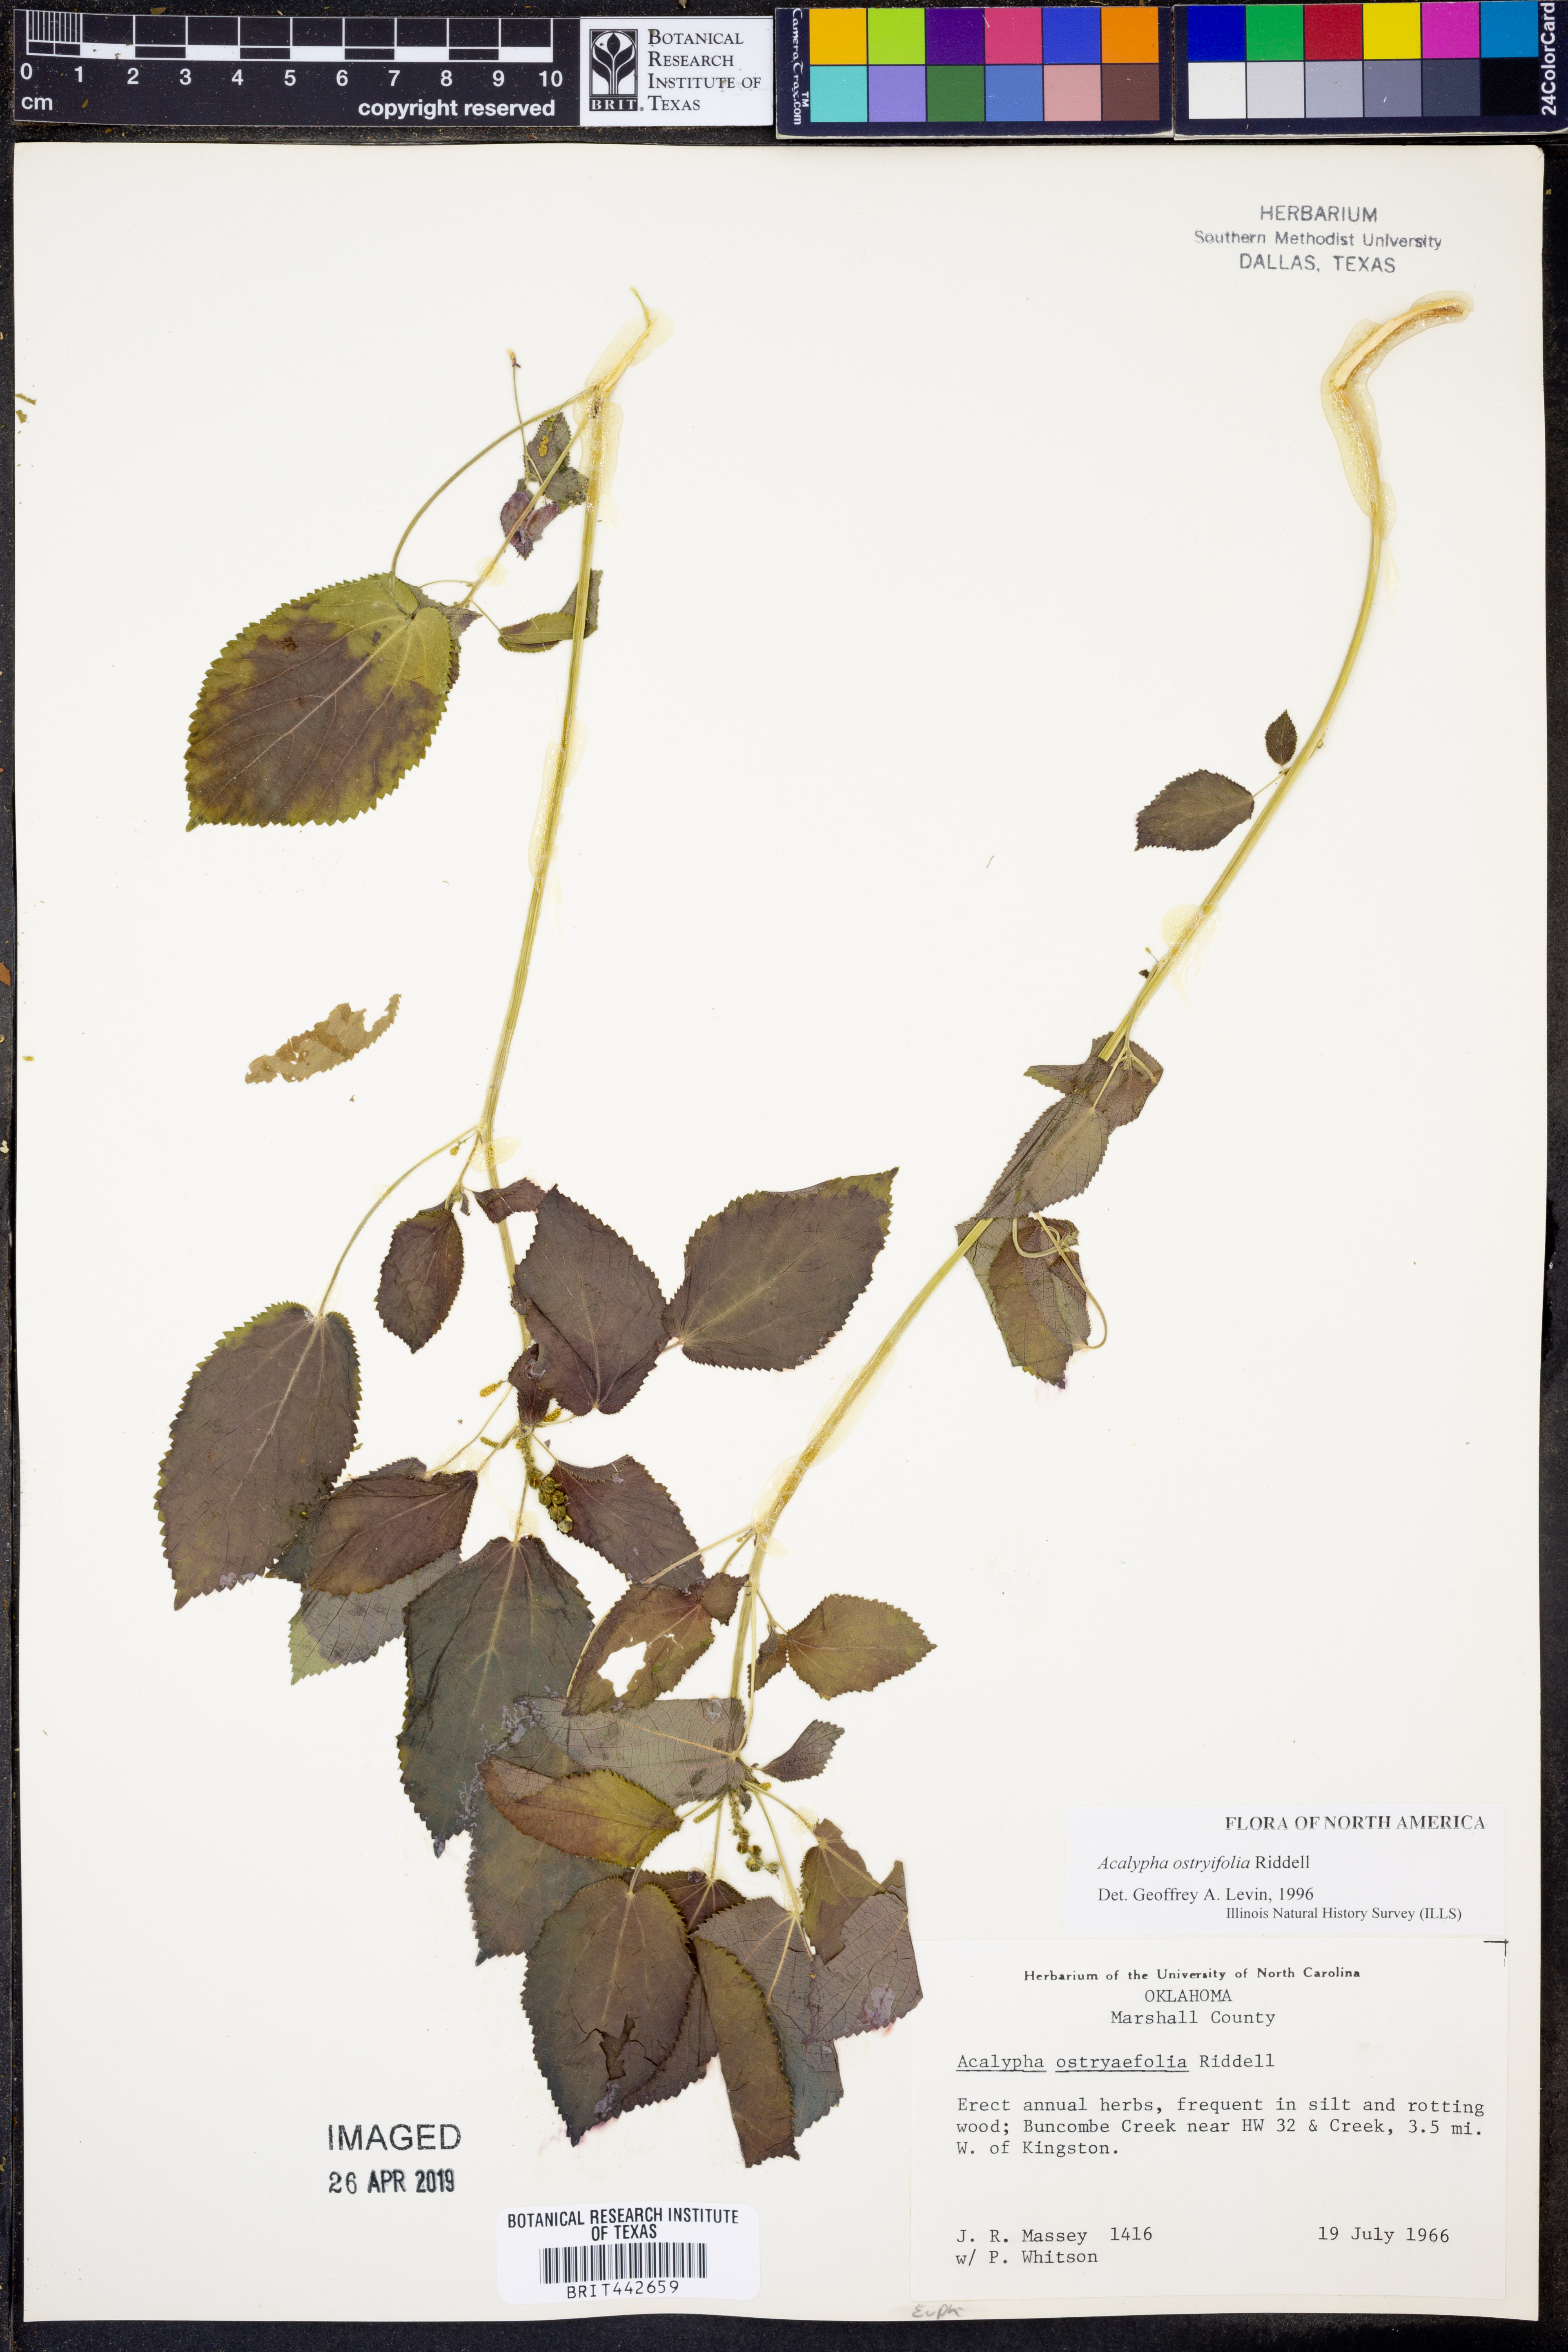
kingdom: Plantae
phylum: Tracheophyta
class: Magnoliopsida
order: Malpighiales
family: Euphorbiaceae
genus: Acalypha
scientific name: Acalypha persimilis
